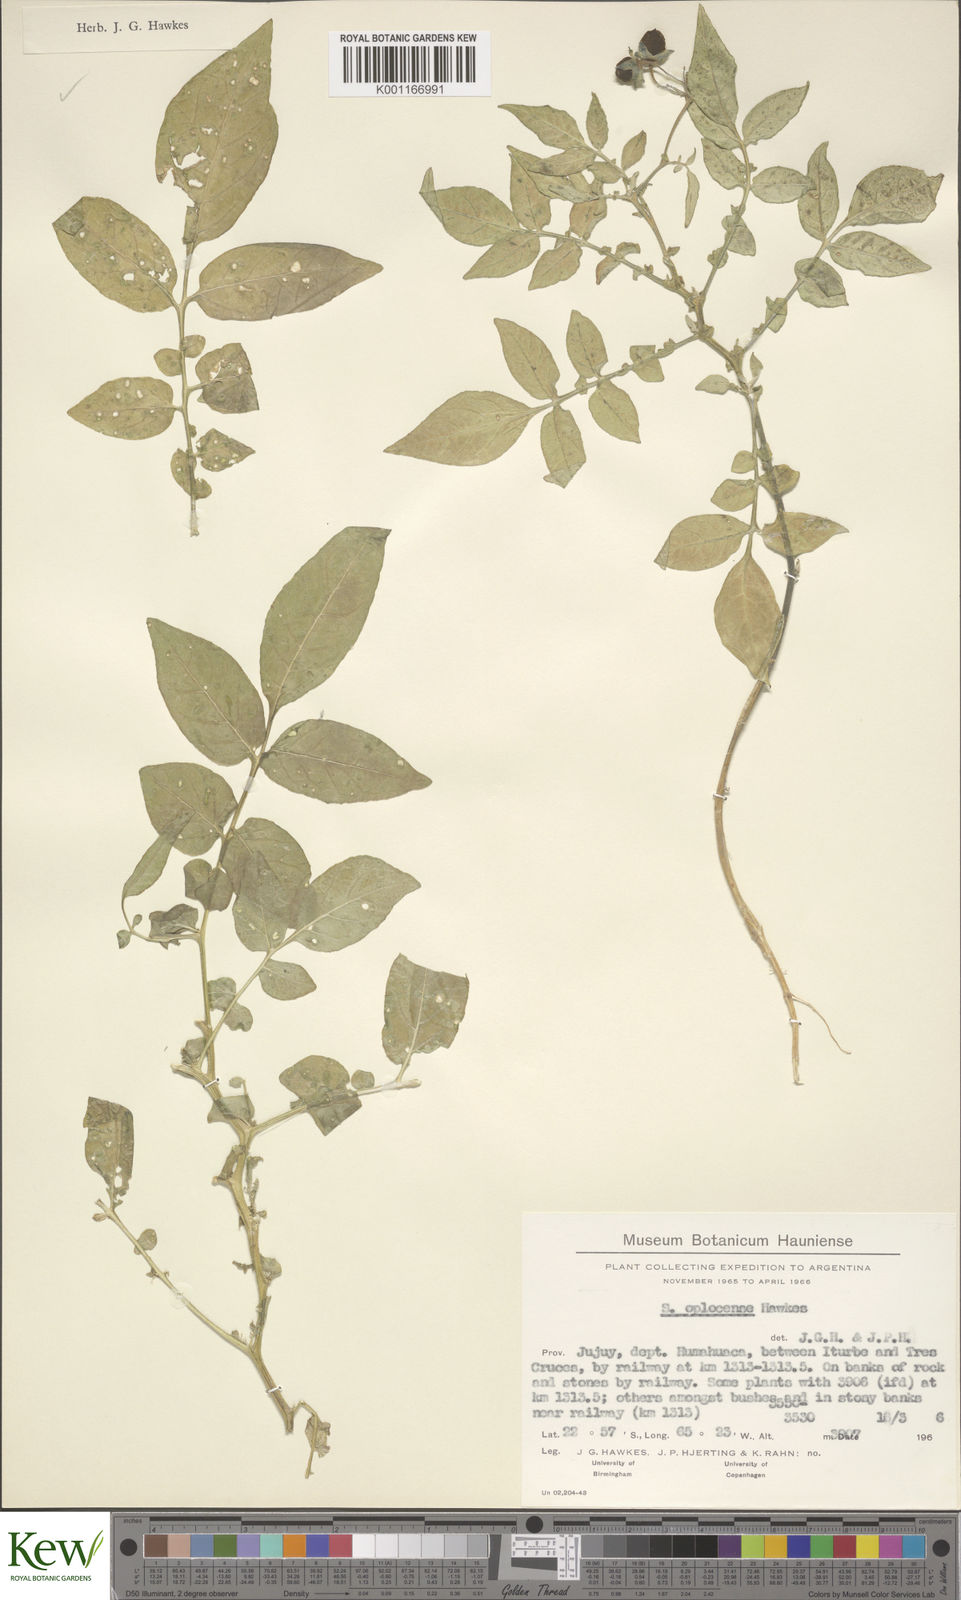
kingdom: Plantae
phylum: Tracheophyta
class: Magnoliopsida
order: Solanales
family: Solanaceae
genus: Solanum
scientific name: Solanum brevicaule
